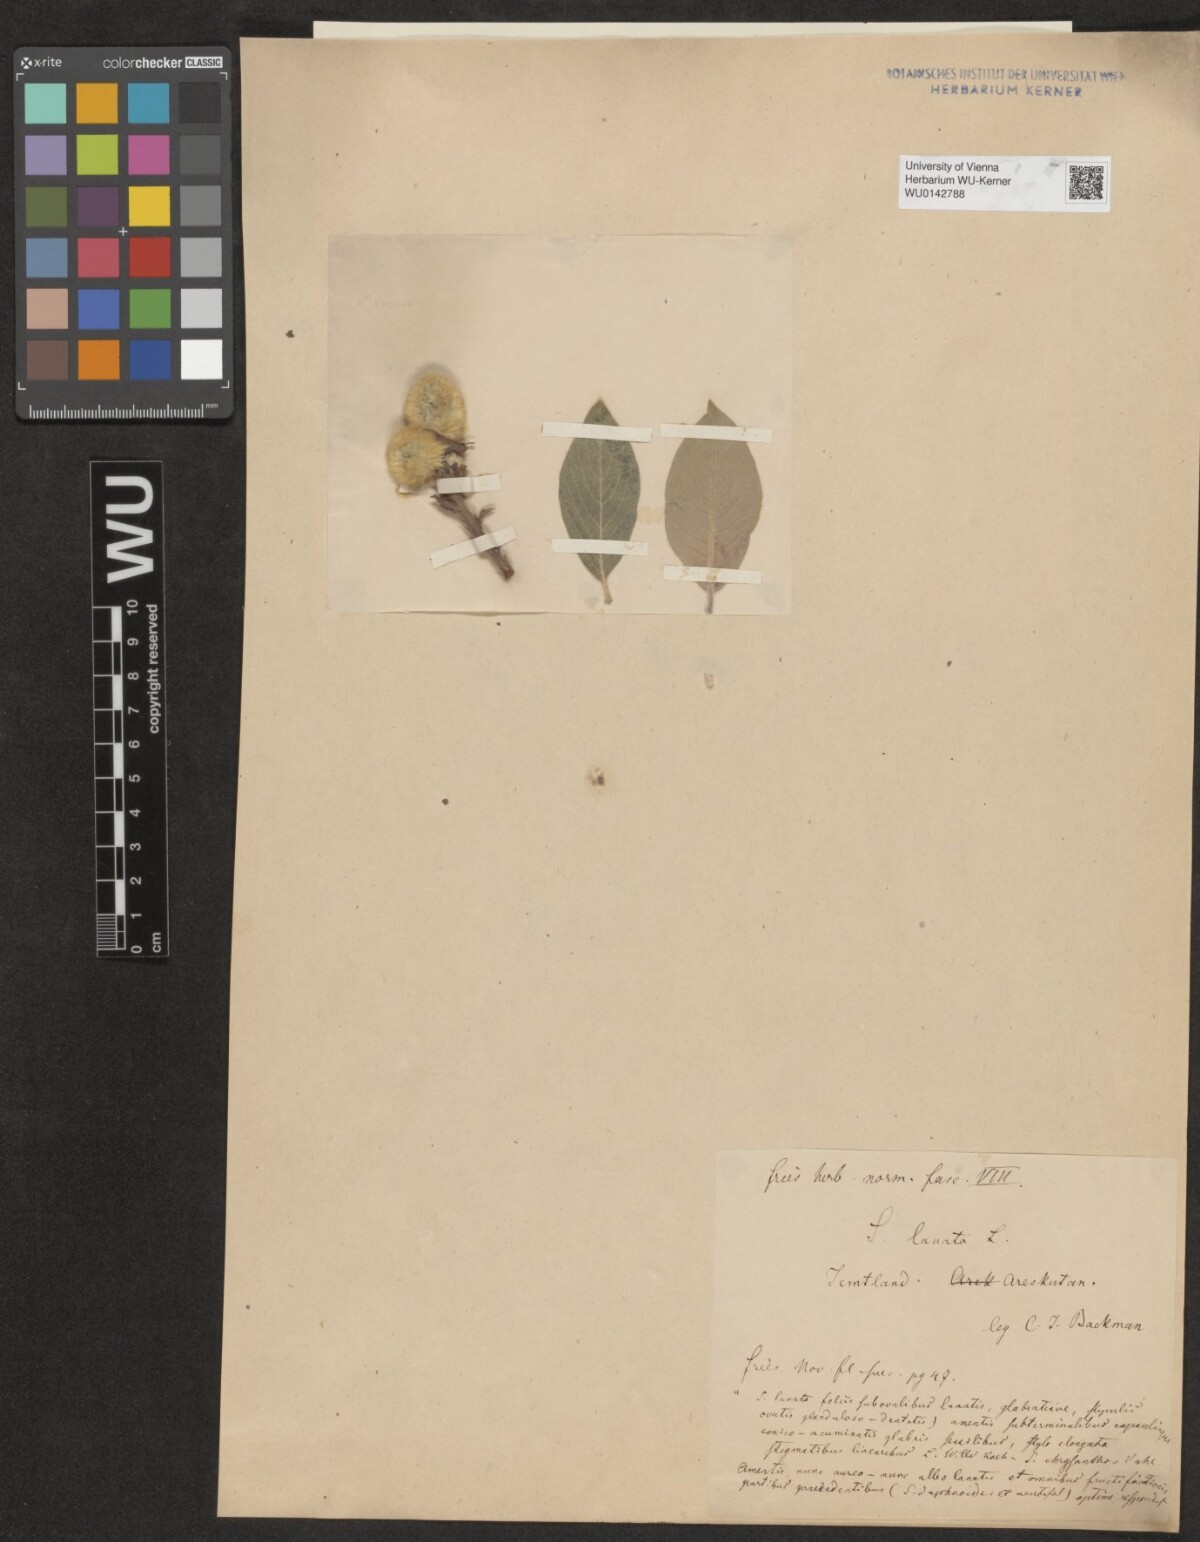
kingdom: Plantae
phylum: Tracheophyta
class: Magnoliopsida
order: Malpighiales
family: Salicaceae
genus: Salix
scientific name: Salix lanata
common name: Woolly willow
